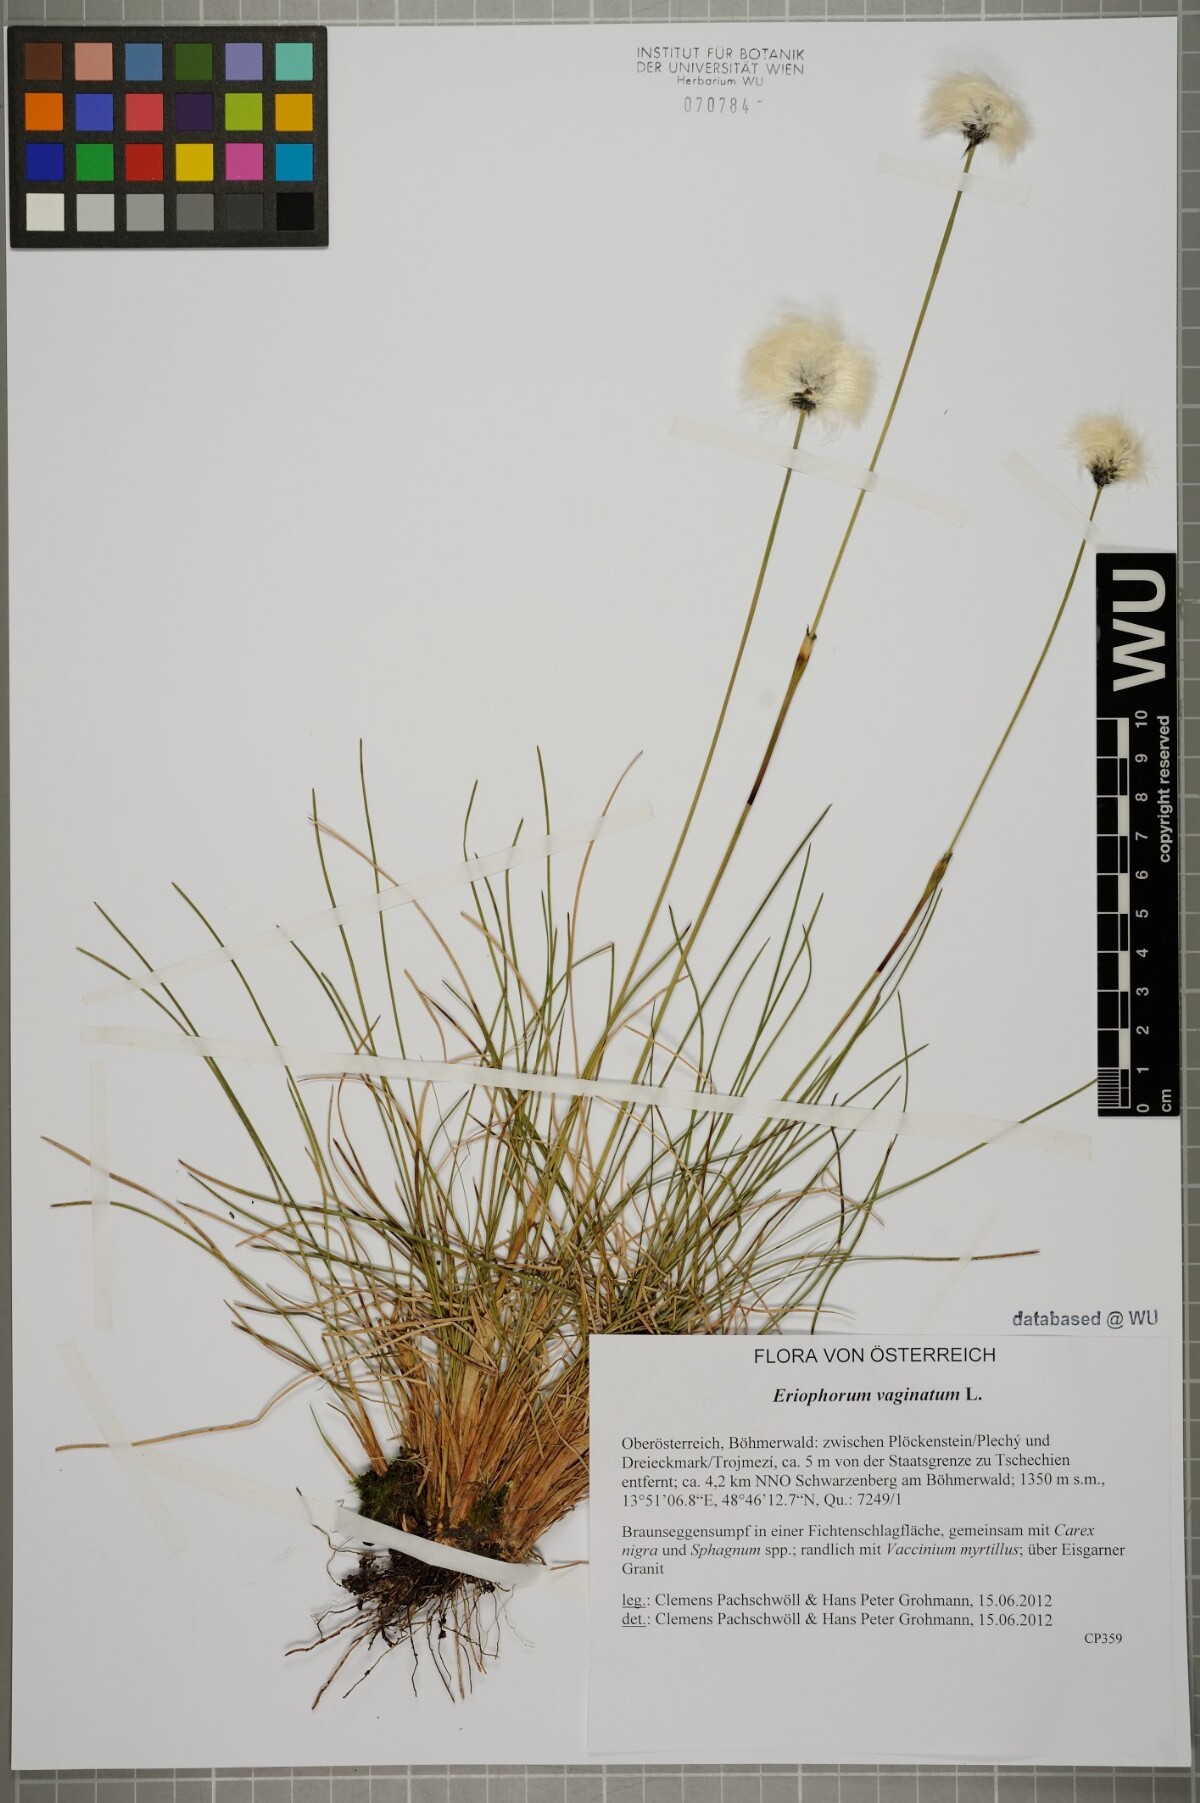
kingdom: Plantae
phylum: Tracheophyta
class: Liliopsida
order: Poales
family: Cyperaceae
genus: Eriophorum
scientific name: Eriophorum vaginatum
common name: Hare's-tail cottongrass
